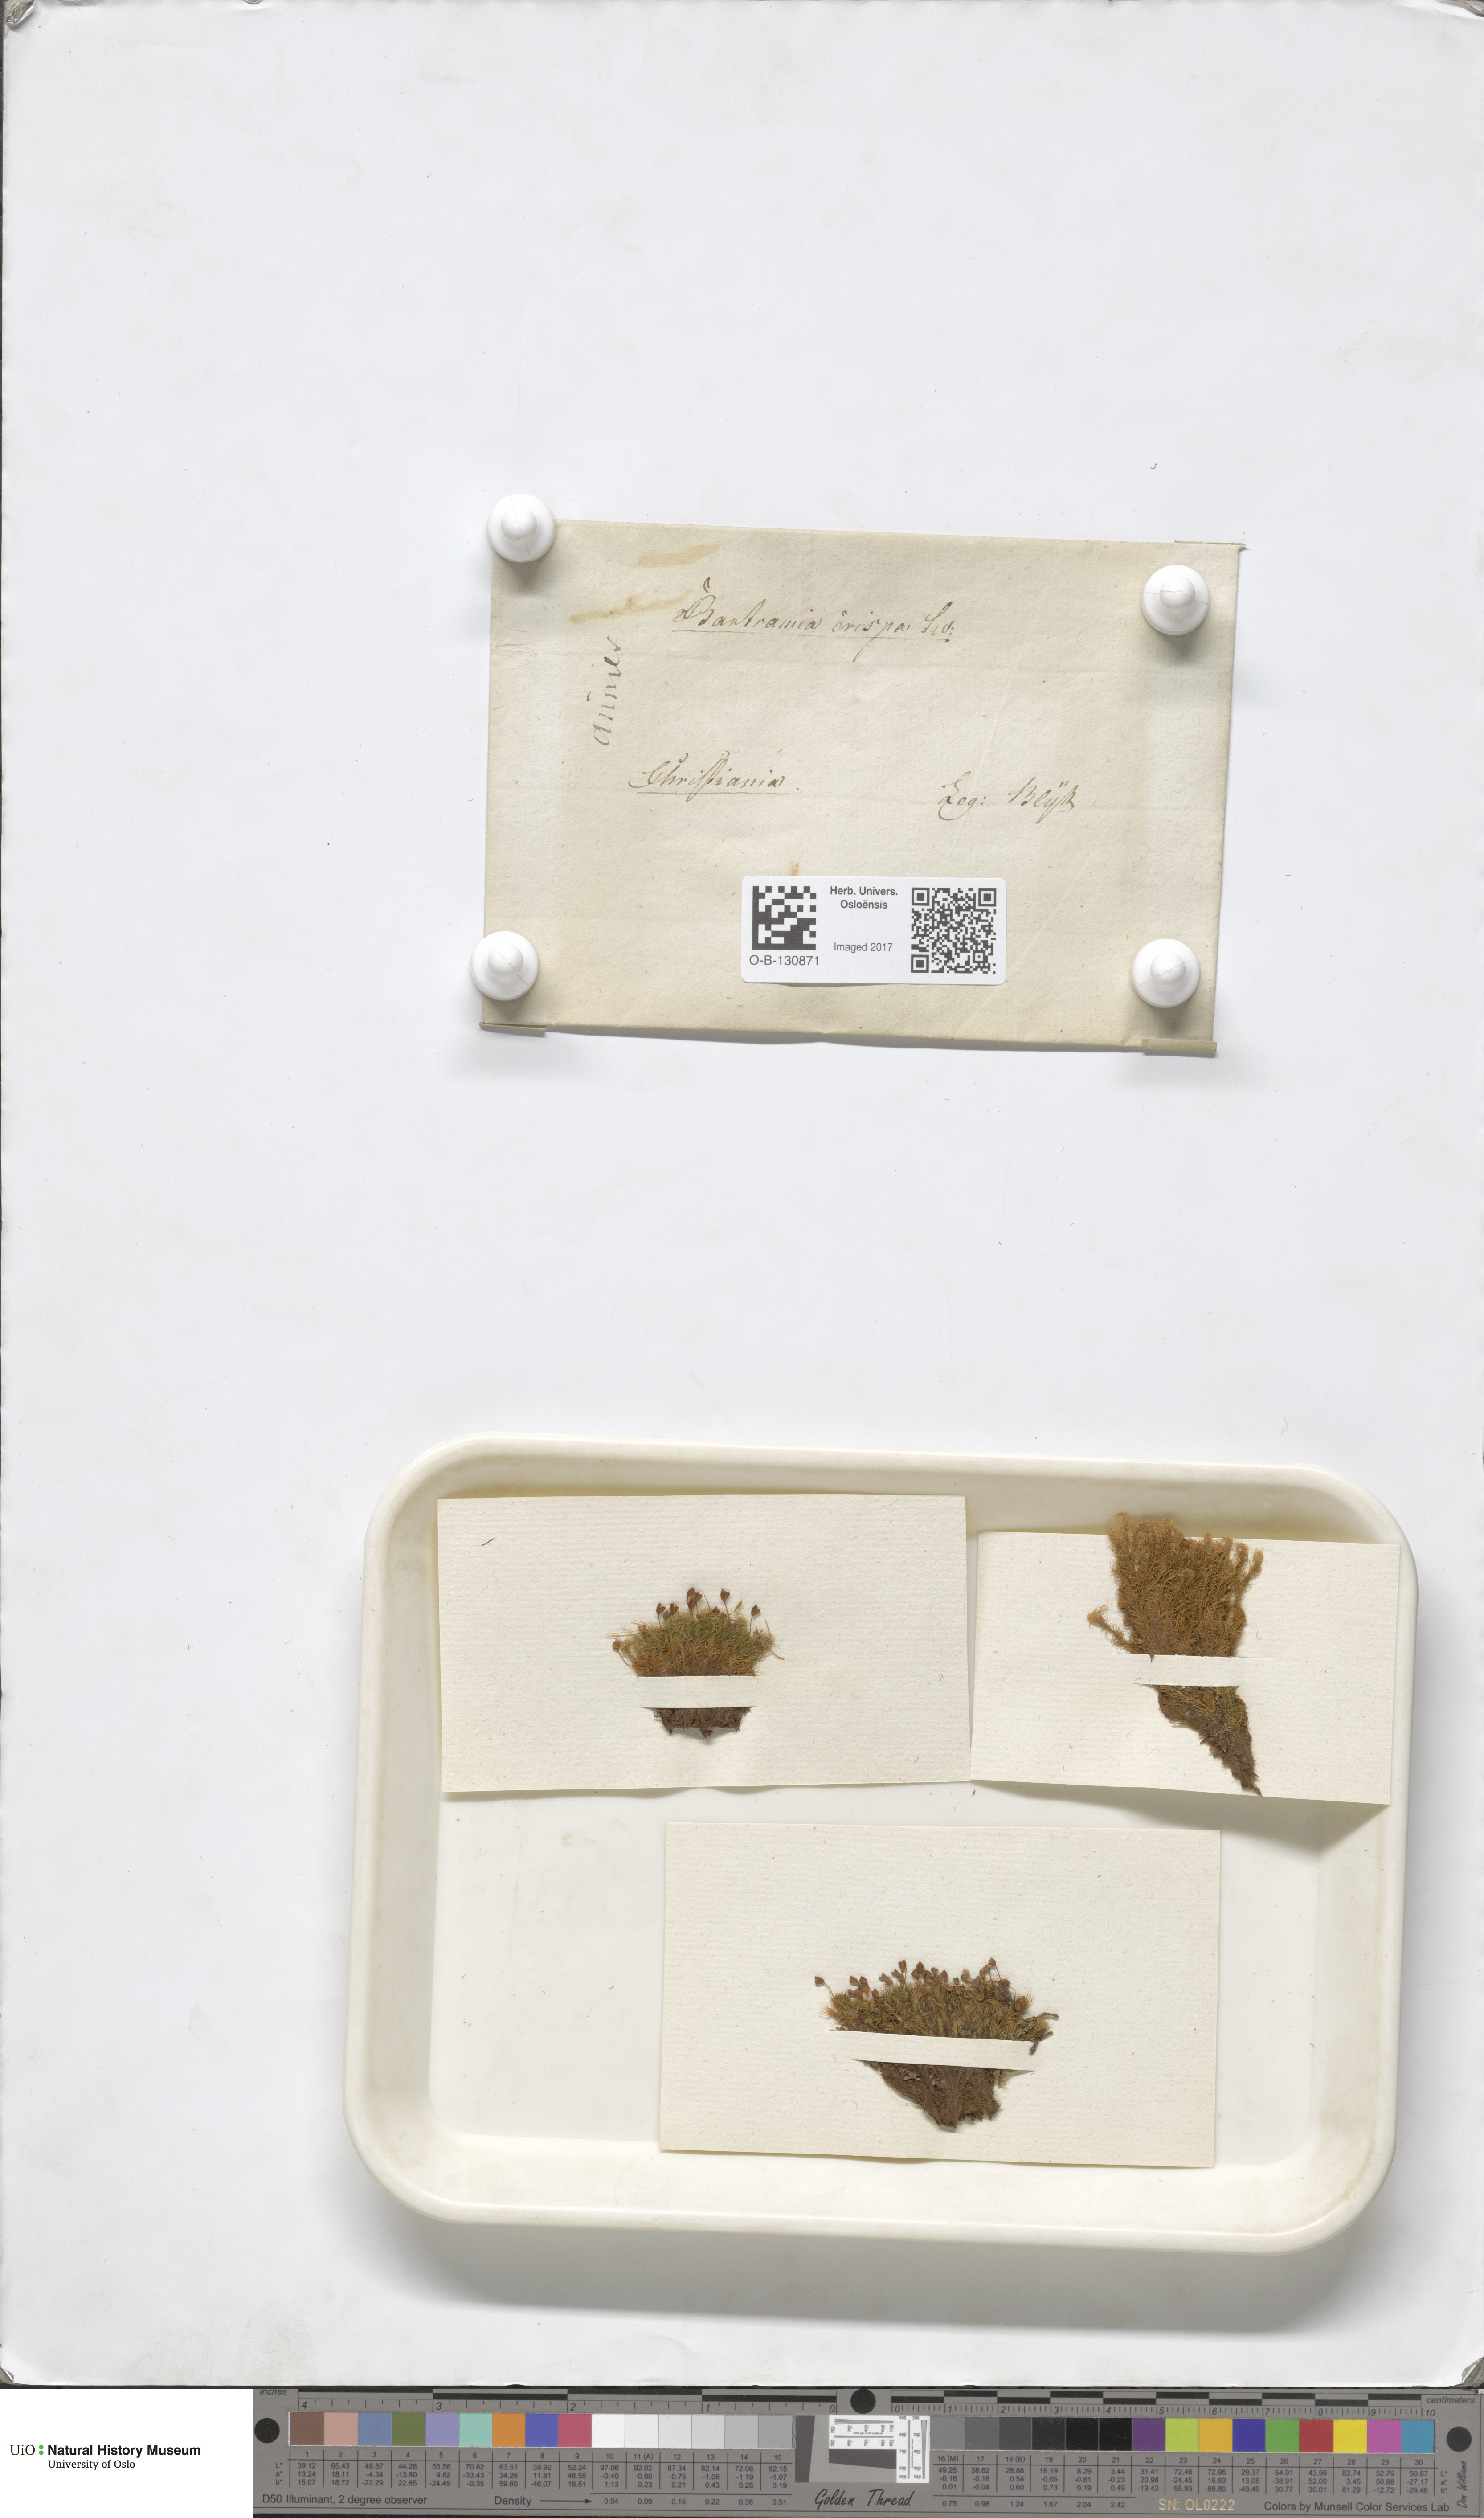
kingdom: Plantae
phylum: Bryophyta
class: Bryopsida
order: Bartramiales
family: Bartramiaceae
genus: Bartramia
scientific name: Bartramia pomiformis
